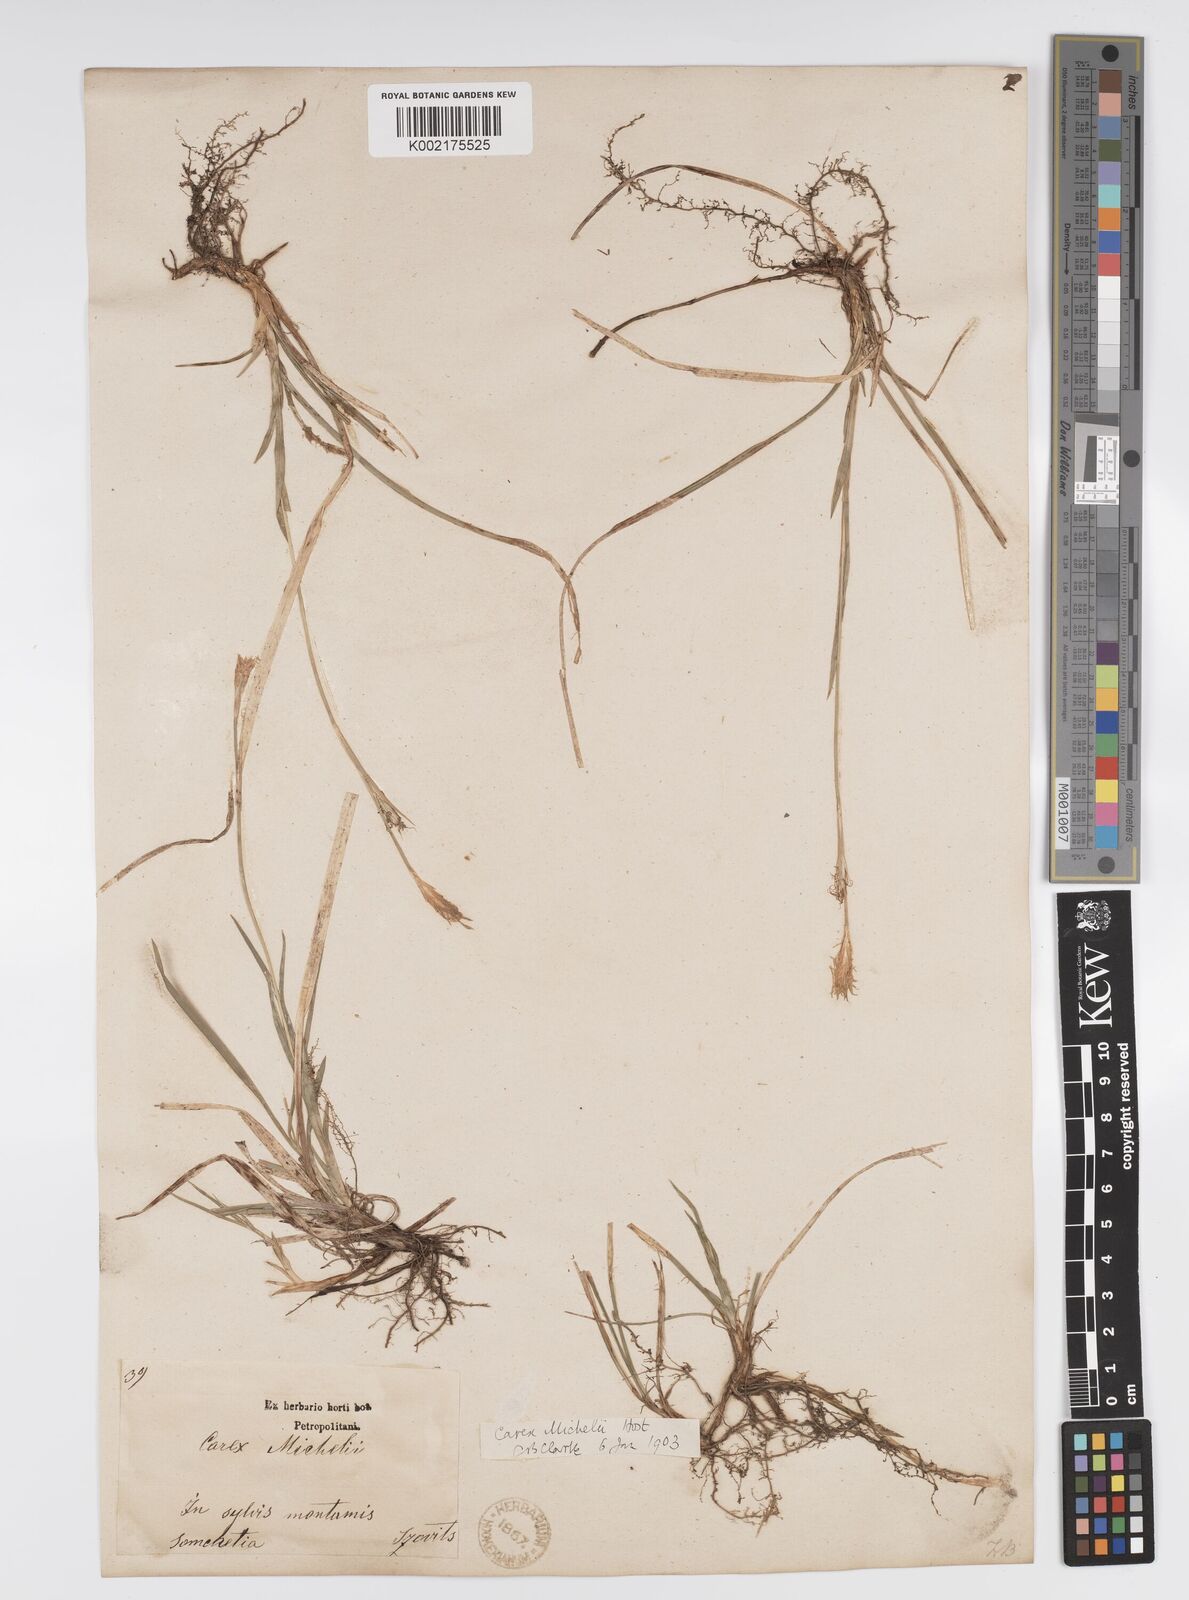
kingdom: Plantae
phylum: Tracheophyta
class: Liliopsida
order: Poales
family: Cyperaceae
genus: Carex
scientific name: Carex michelii
